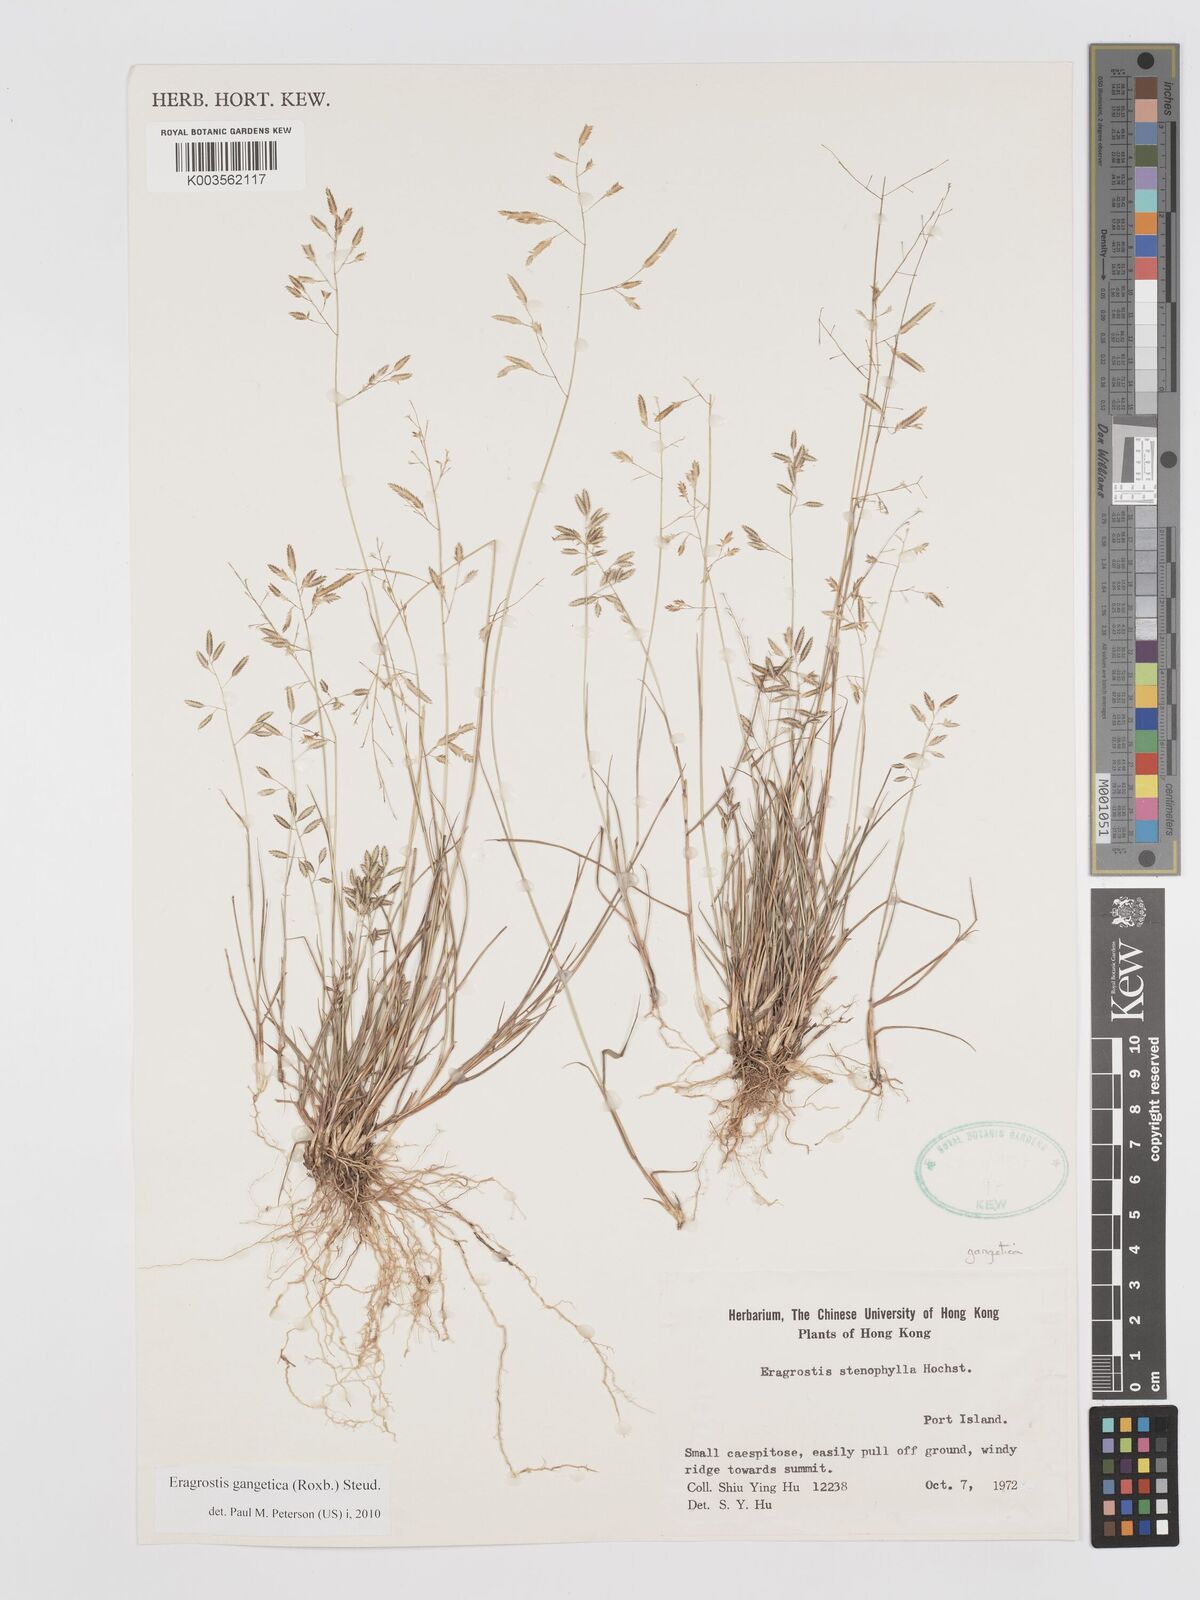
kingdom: Plantae
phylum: Tracheophyta
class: Liliopsida
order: Poales
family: Poaceae
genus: Eragrostis
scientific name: Eragrostis gangetica
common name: Slimflower lovegrass
